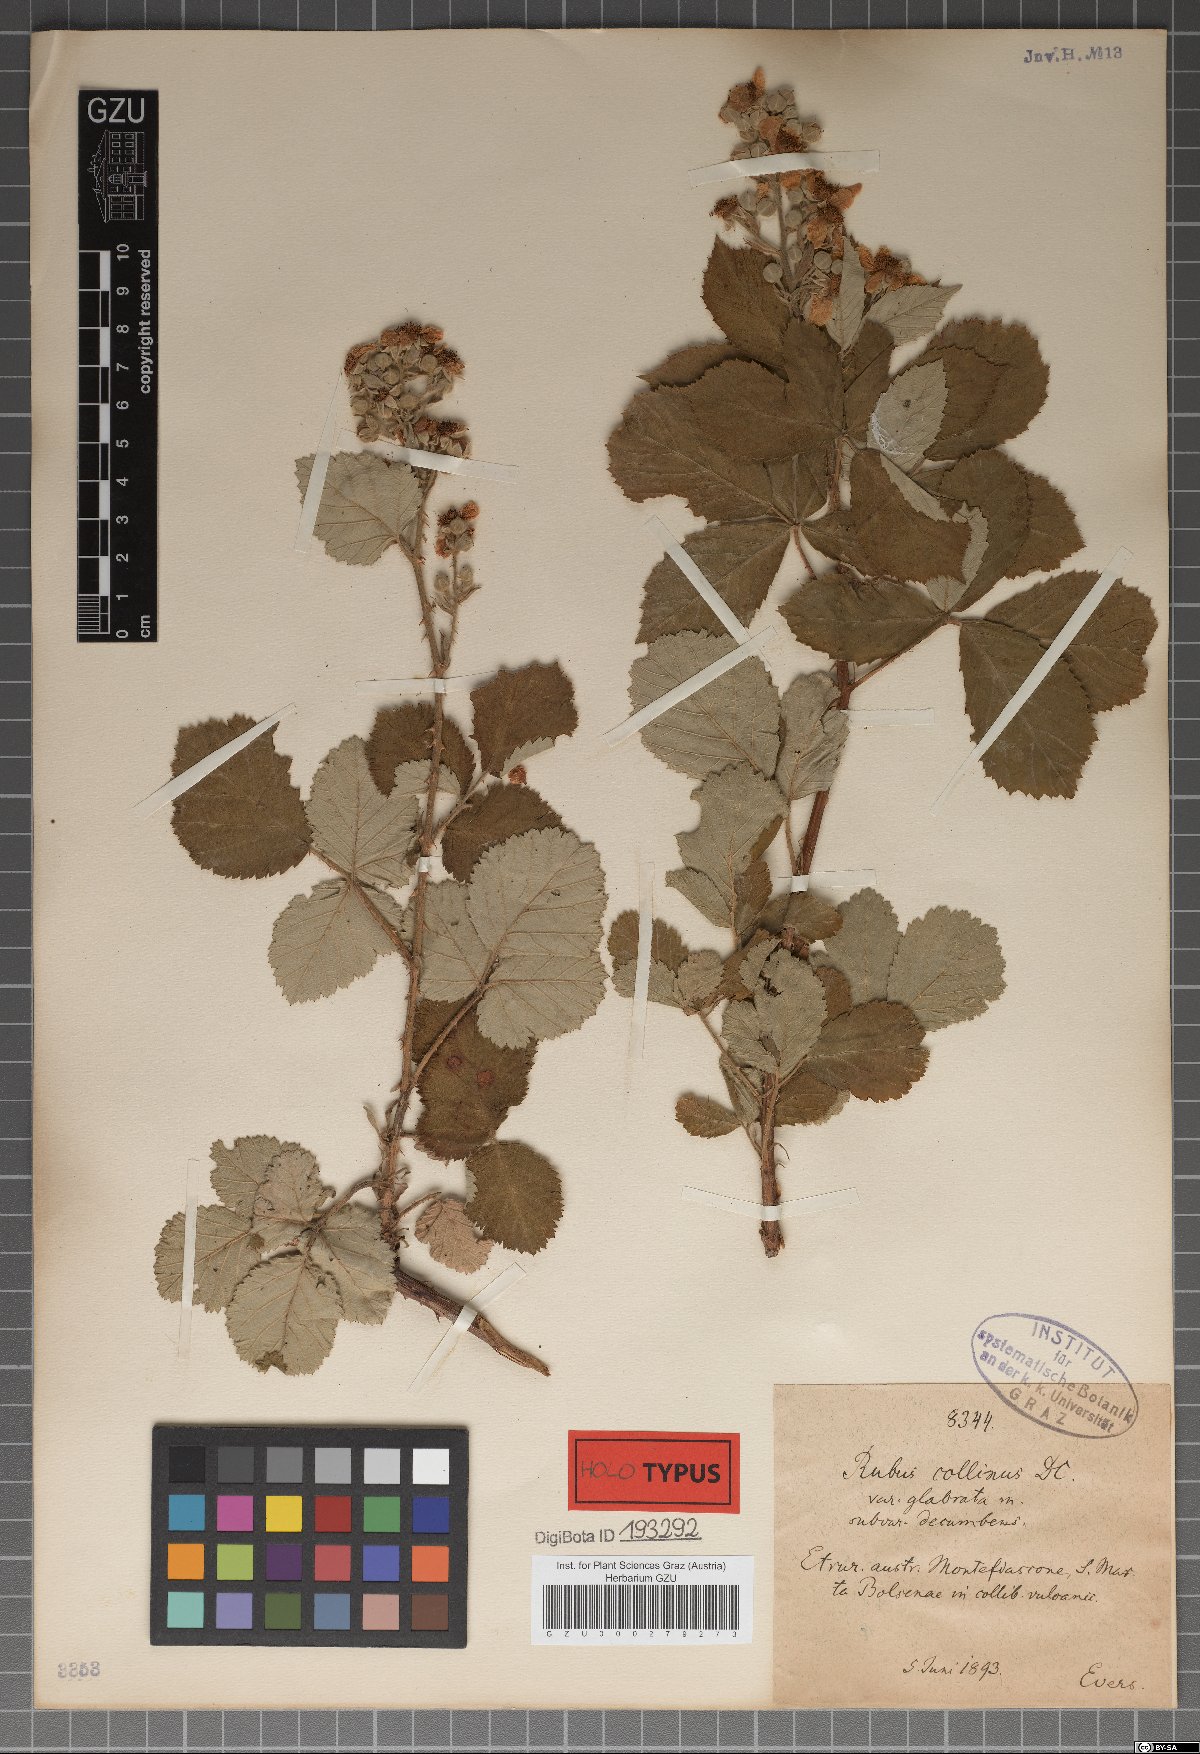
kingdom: Plantae
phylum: Tracheophyta
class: Magnoliopsida
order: Rosales
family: Rosaceae
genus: Rubus
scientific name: Rubus collinus
